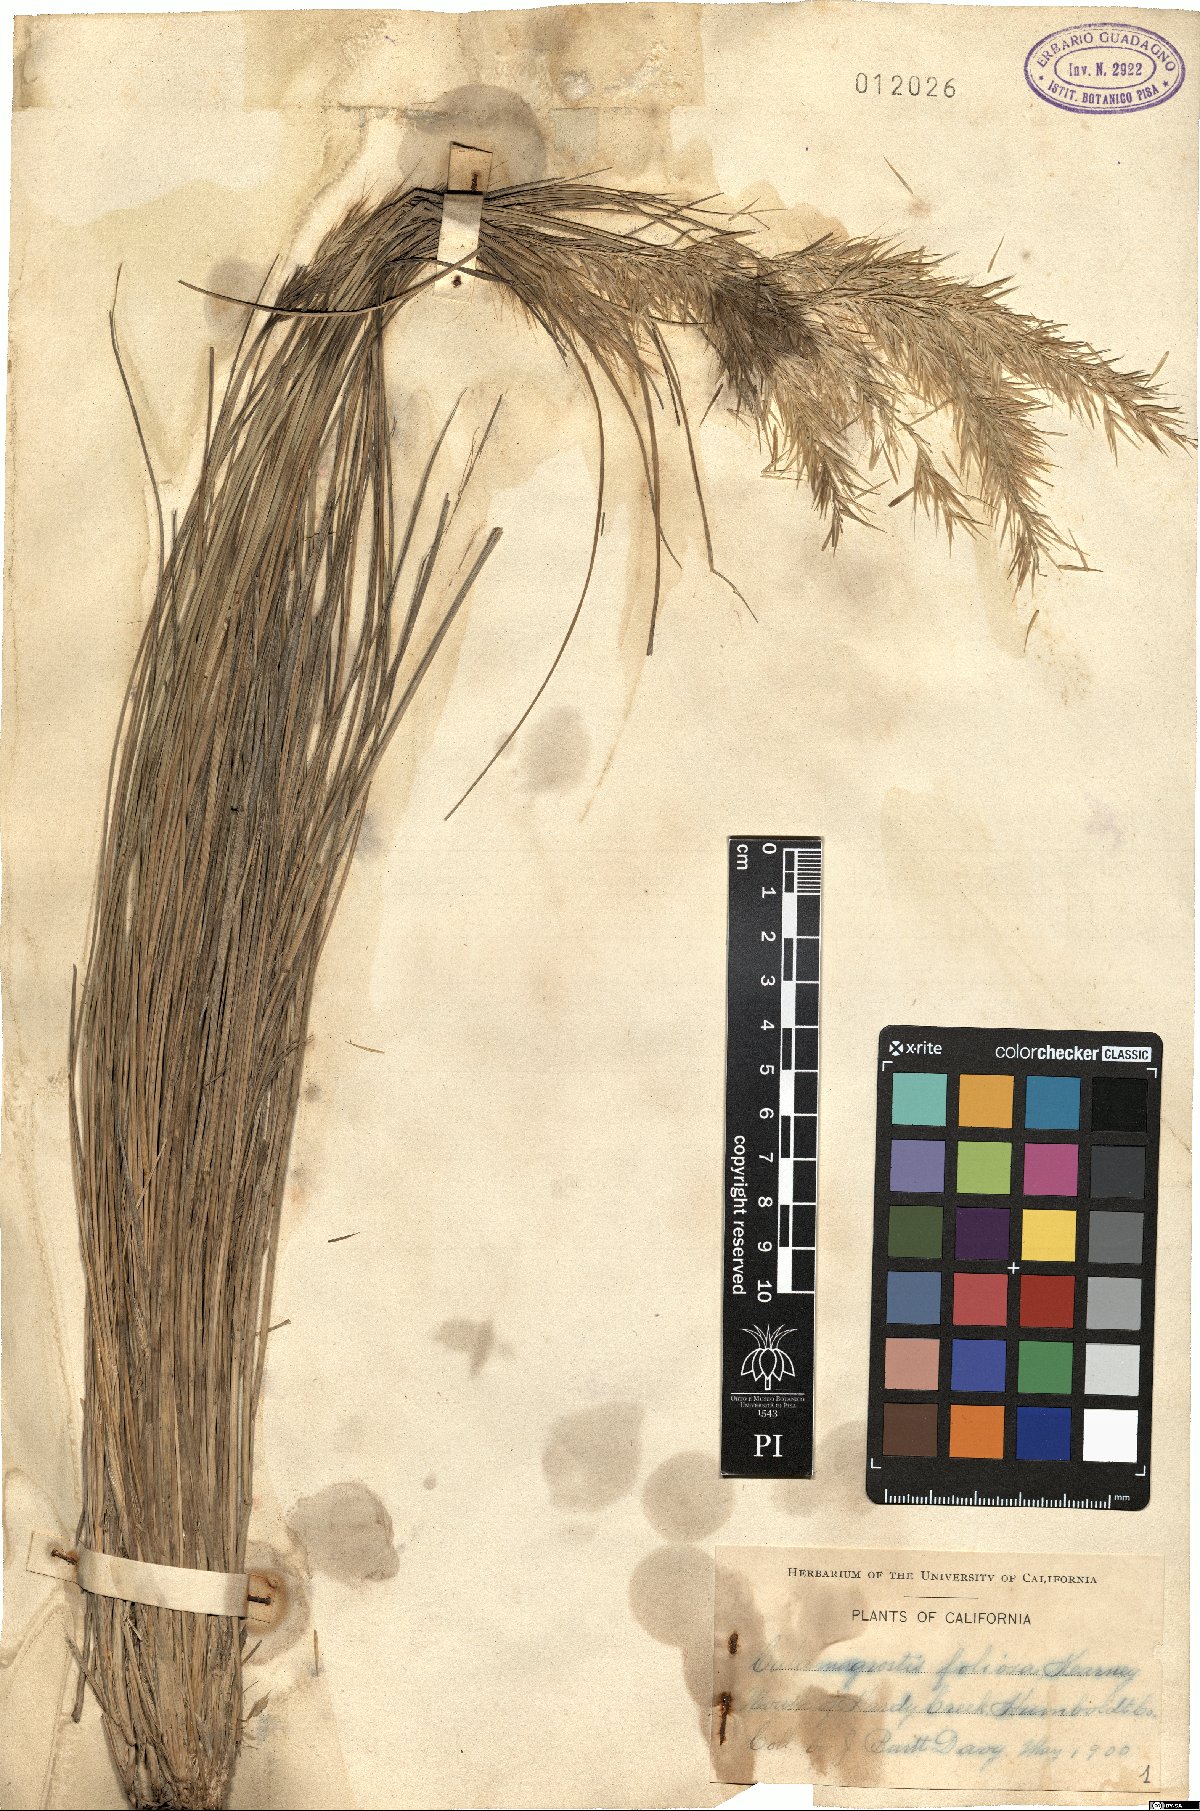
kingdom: Plantae
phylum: Tracheophyta
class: Liliopsida
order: Poales
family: Poaceae
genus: Calamagrostis
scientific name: Calamagrostis foliosa
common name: Leafy reed grass
